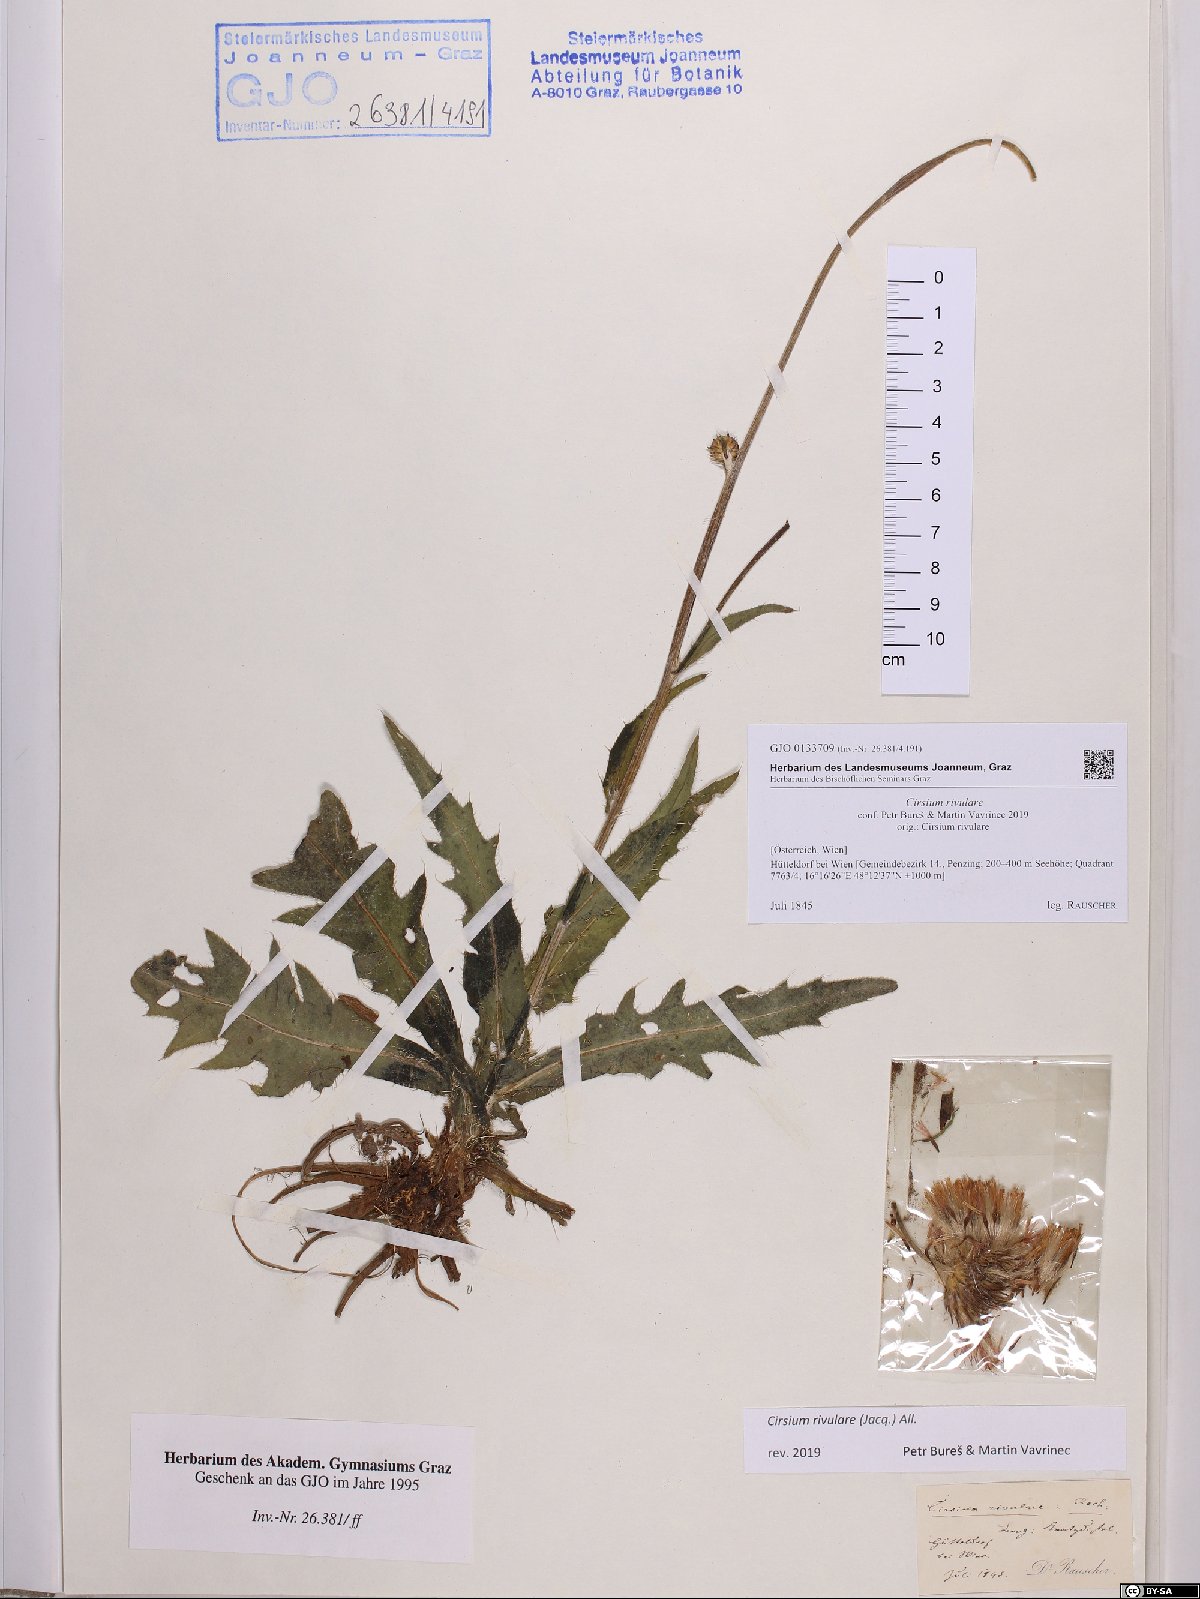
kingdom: Plantae
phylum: Tracheophyta
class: Magnoliopsida
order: Asterales
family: Asteraceae
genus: Cirsium
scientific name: Cirsium rivulare
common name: Brook thistle
